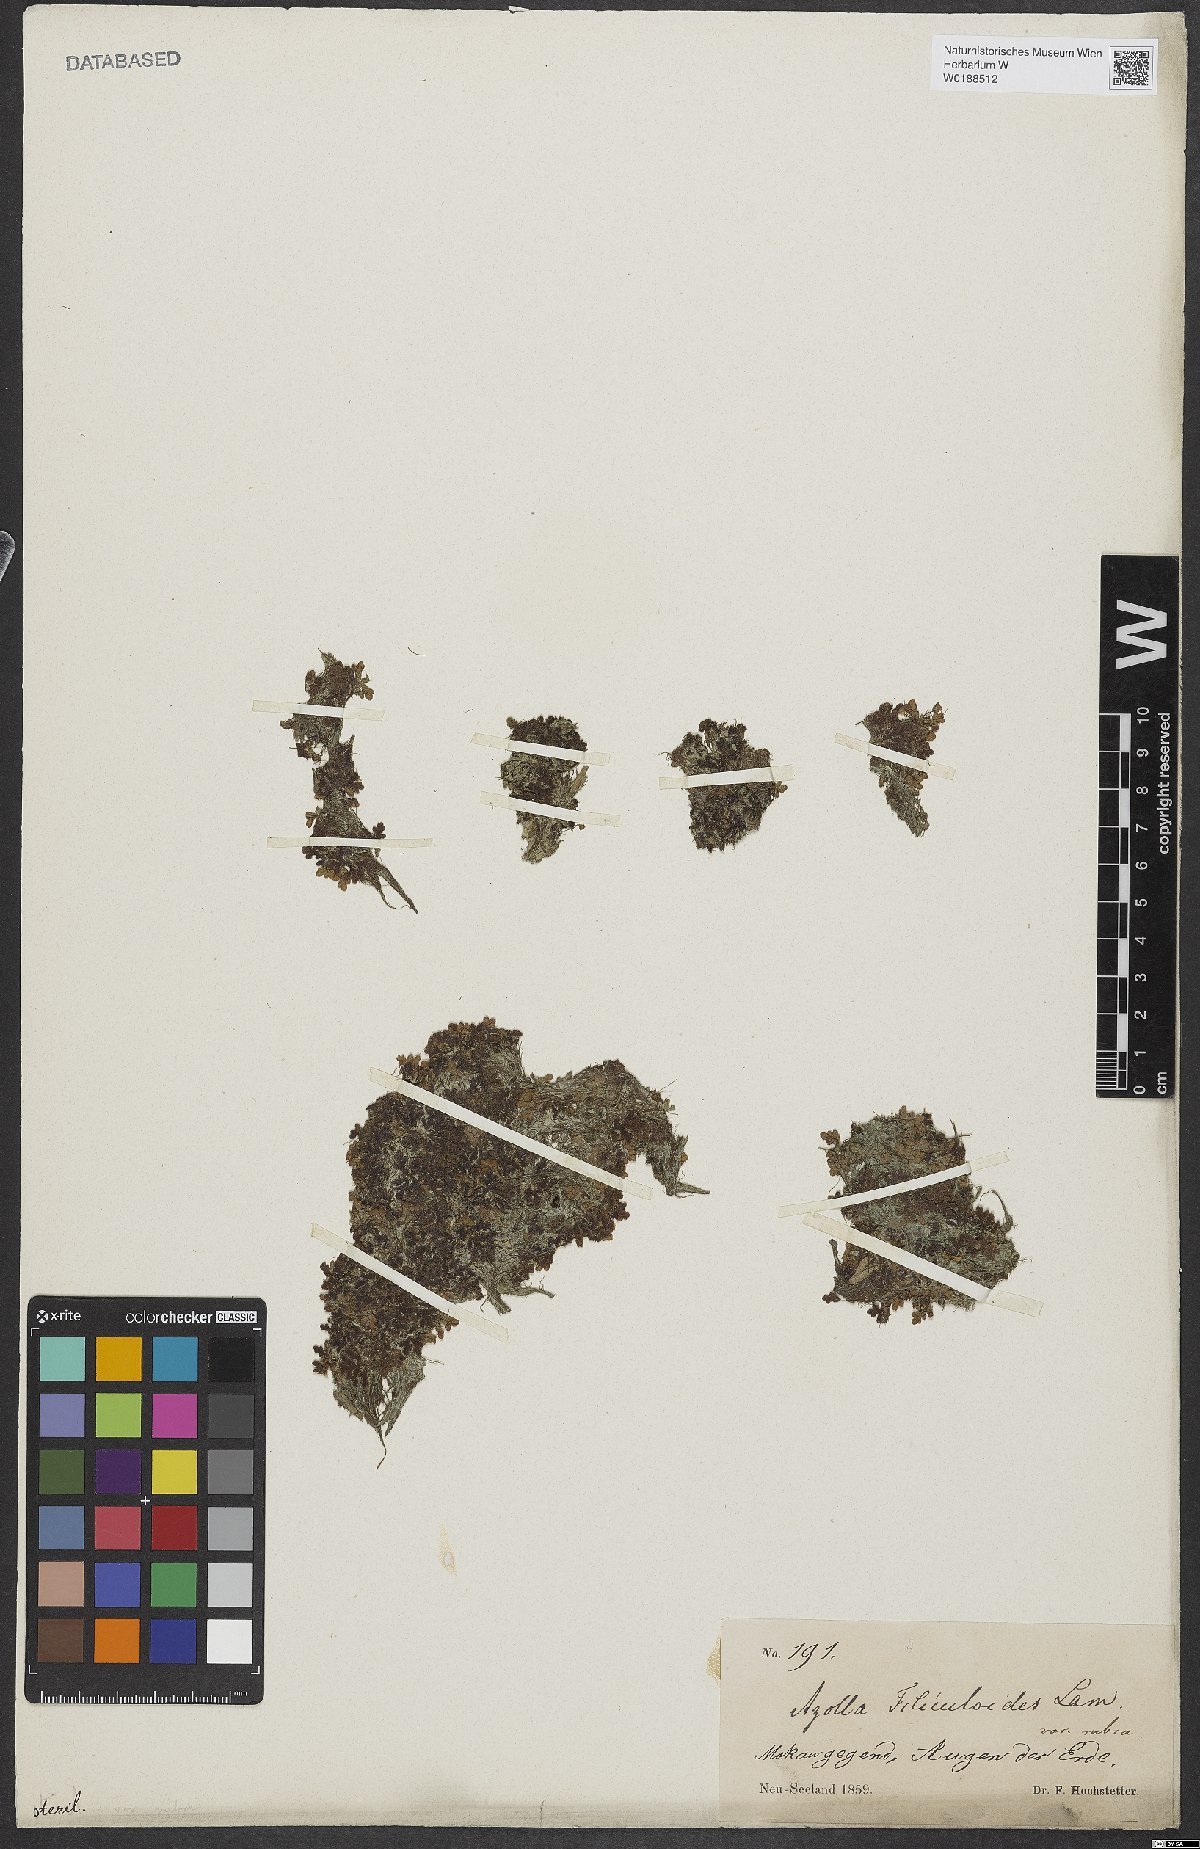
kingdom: Plantae
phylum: Tracheophyta
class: Polypodiopsida
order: Salviniales
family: Salviniaceae
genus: Azolla
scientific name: Azolla rubra
